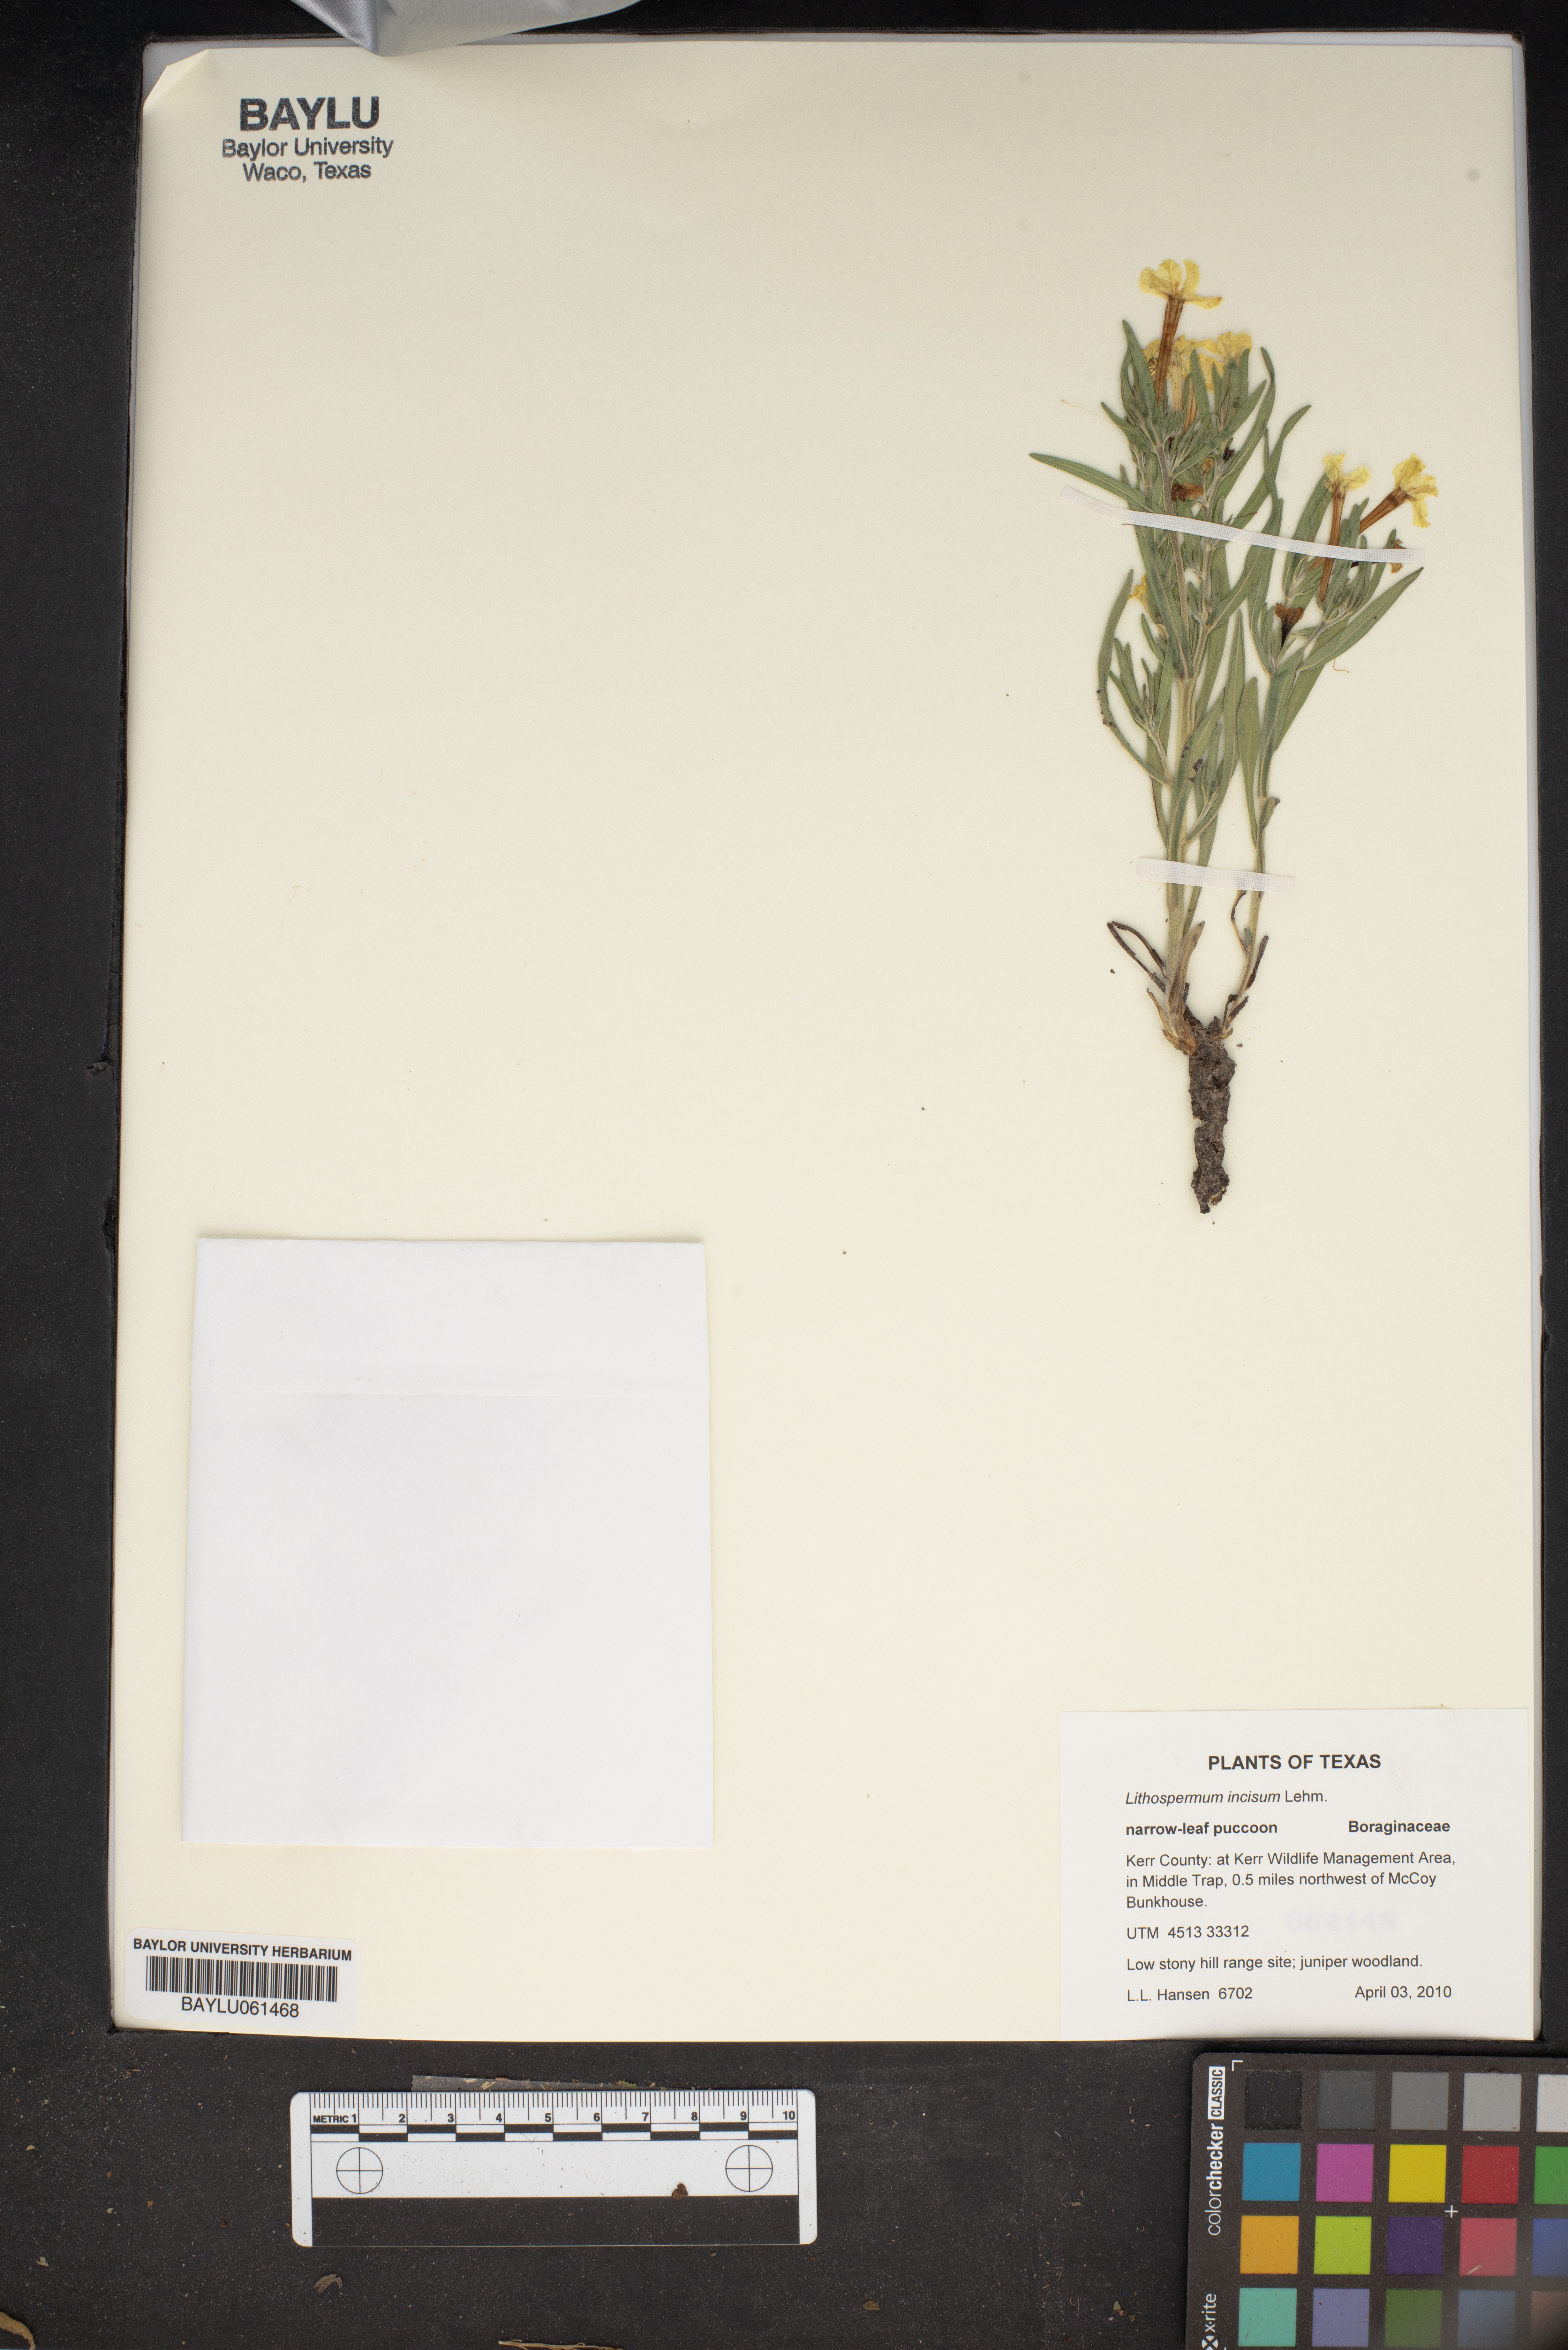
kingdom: Plantae
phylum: Tracheophyta
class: Magnoliopsida
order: Boraginales
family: Boraginaceae
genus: Lithospermum
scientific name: Lithospermum incisum
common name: Fringed gromwell
